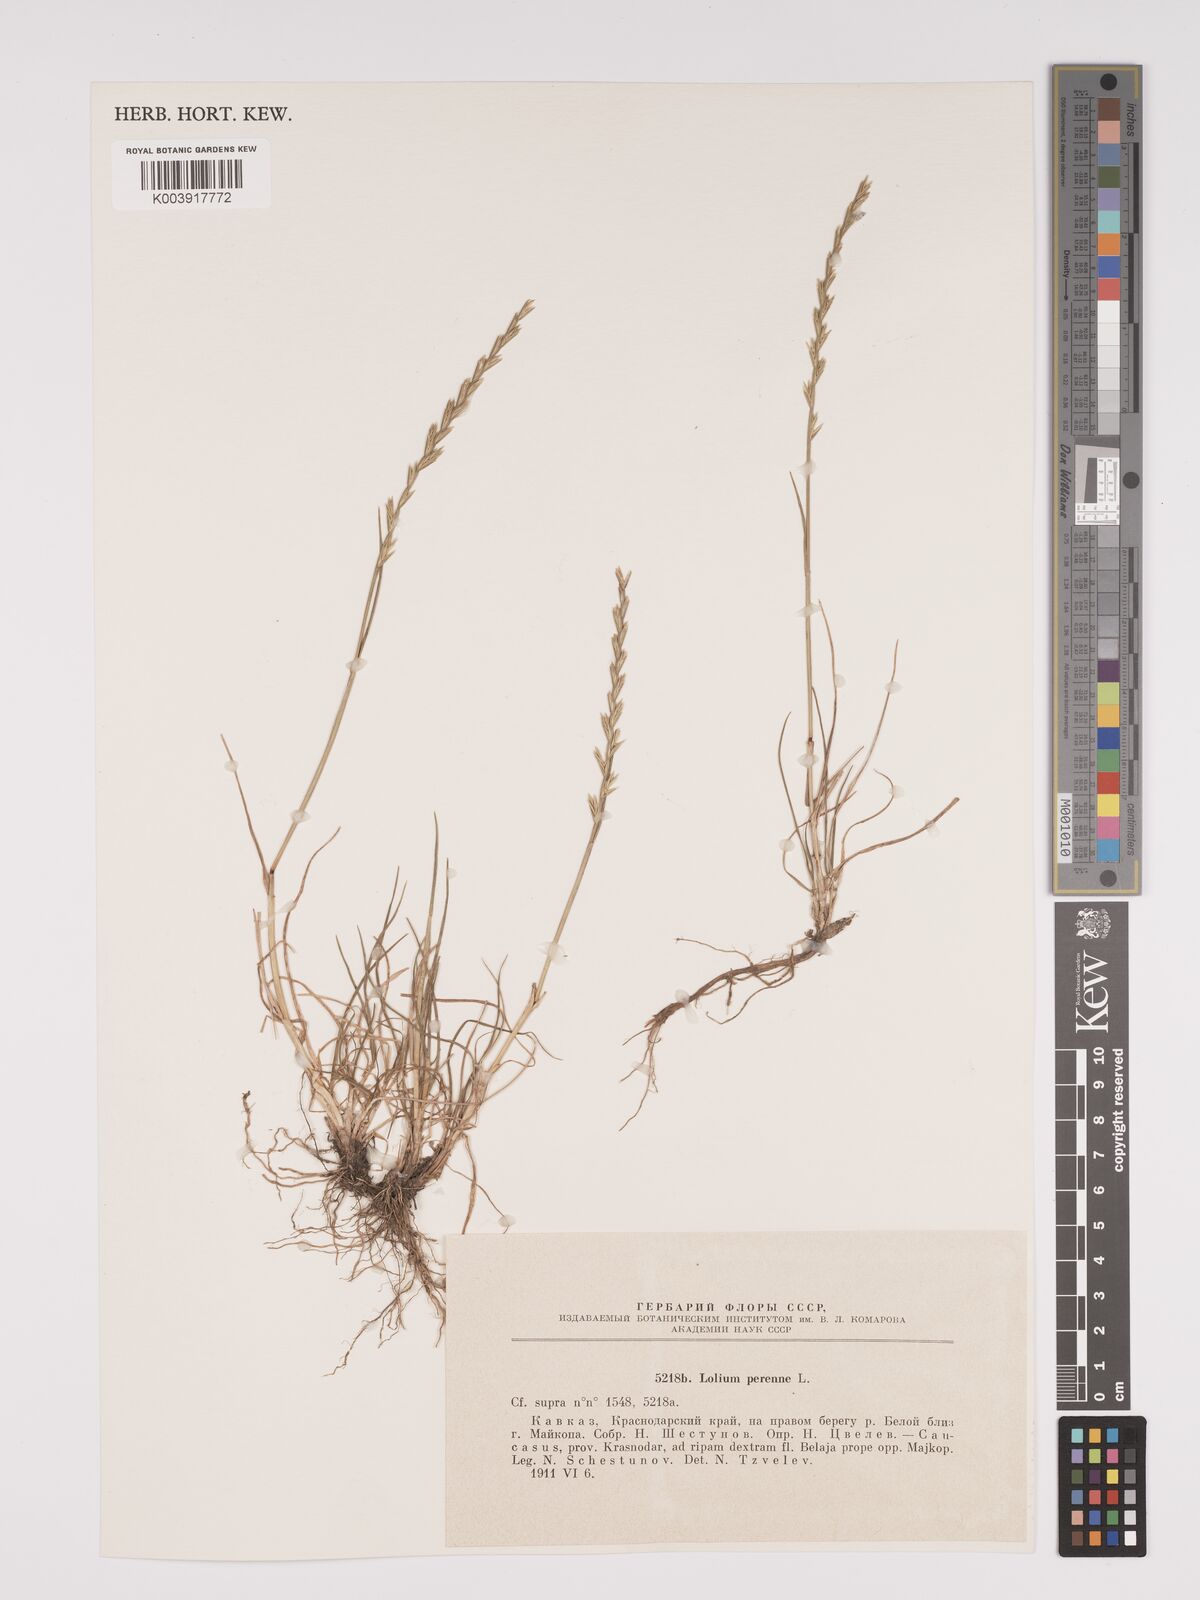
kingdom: Plantae
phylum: Tracheophyta
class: Liliopsida
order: Poales
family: Poaceae
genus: Lolium
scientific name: Lolium perenne
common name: Perennial ryegrass
